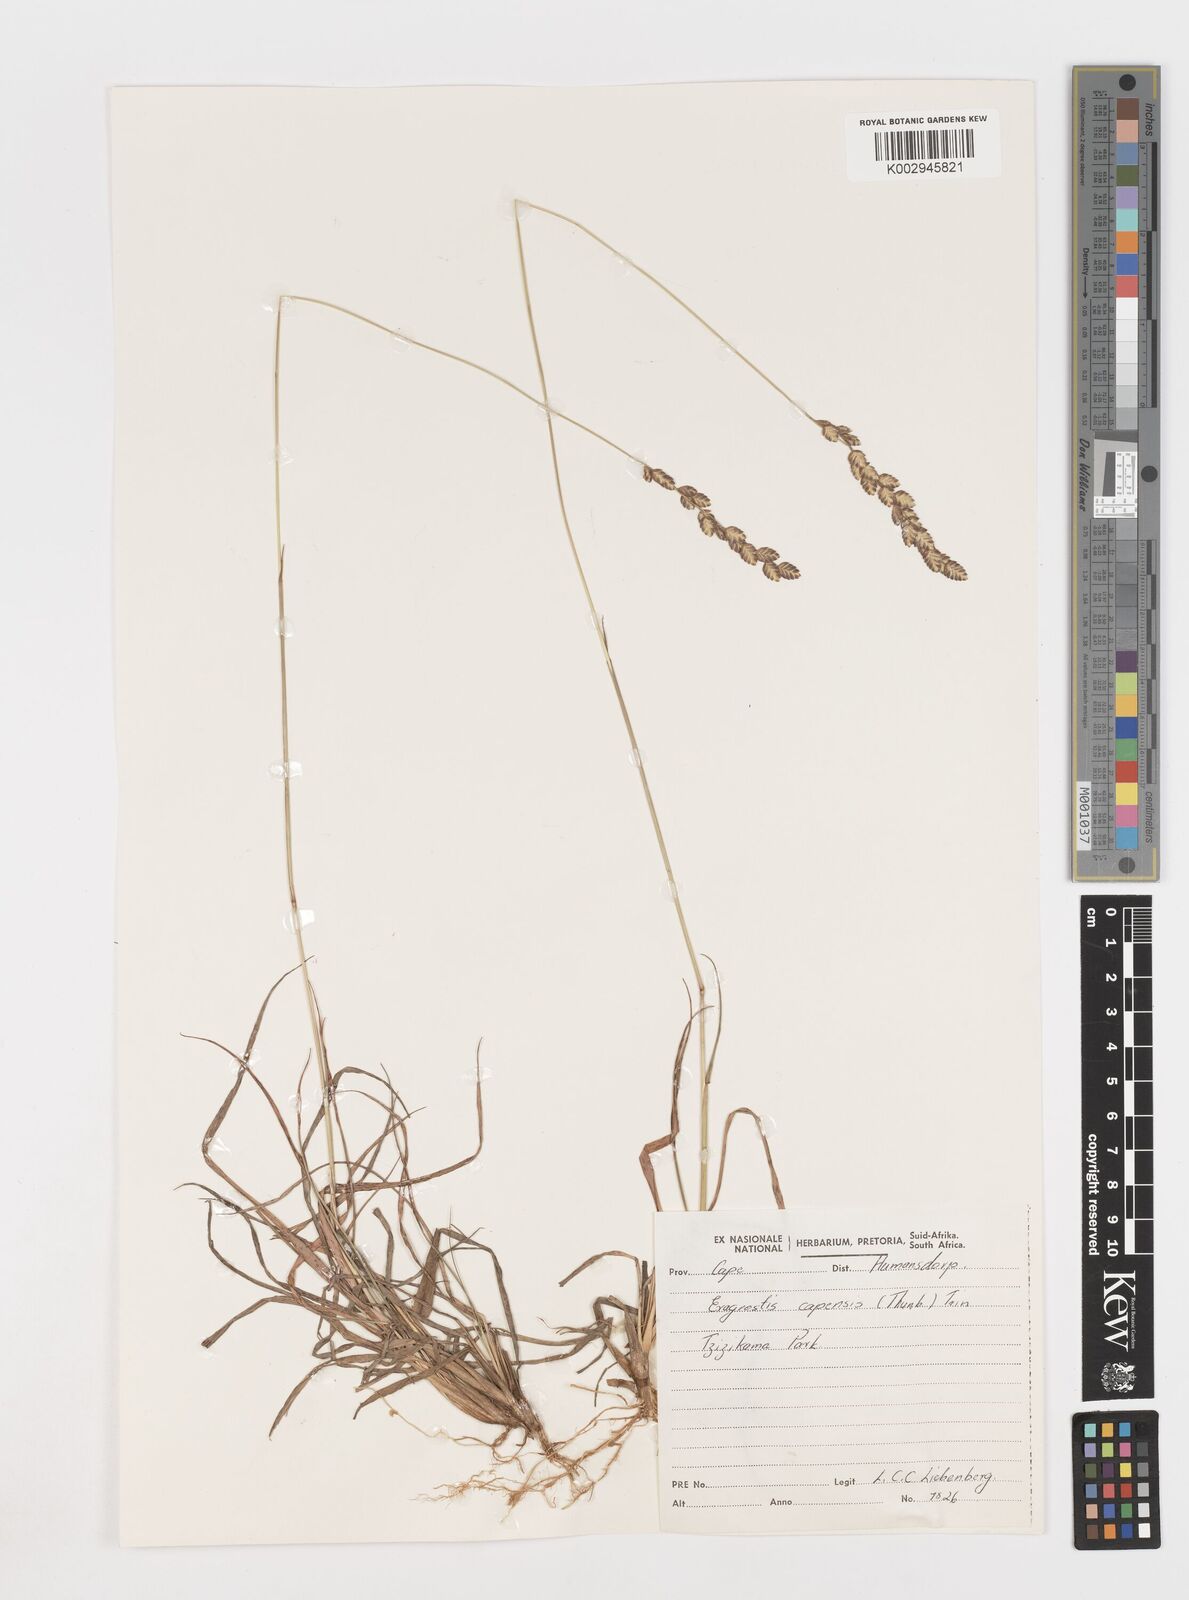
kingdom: Plantae
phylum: Tracheophyta
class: Liliopsida
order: Poales
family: Poaceae
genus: Eragrostis
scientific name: Eragrostis capensis
